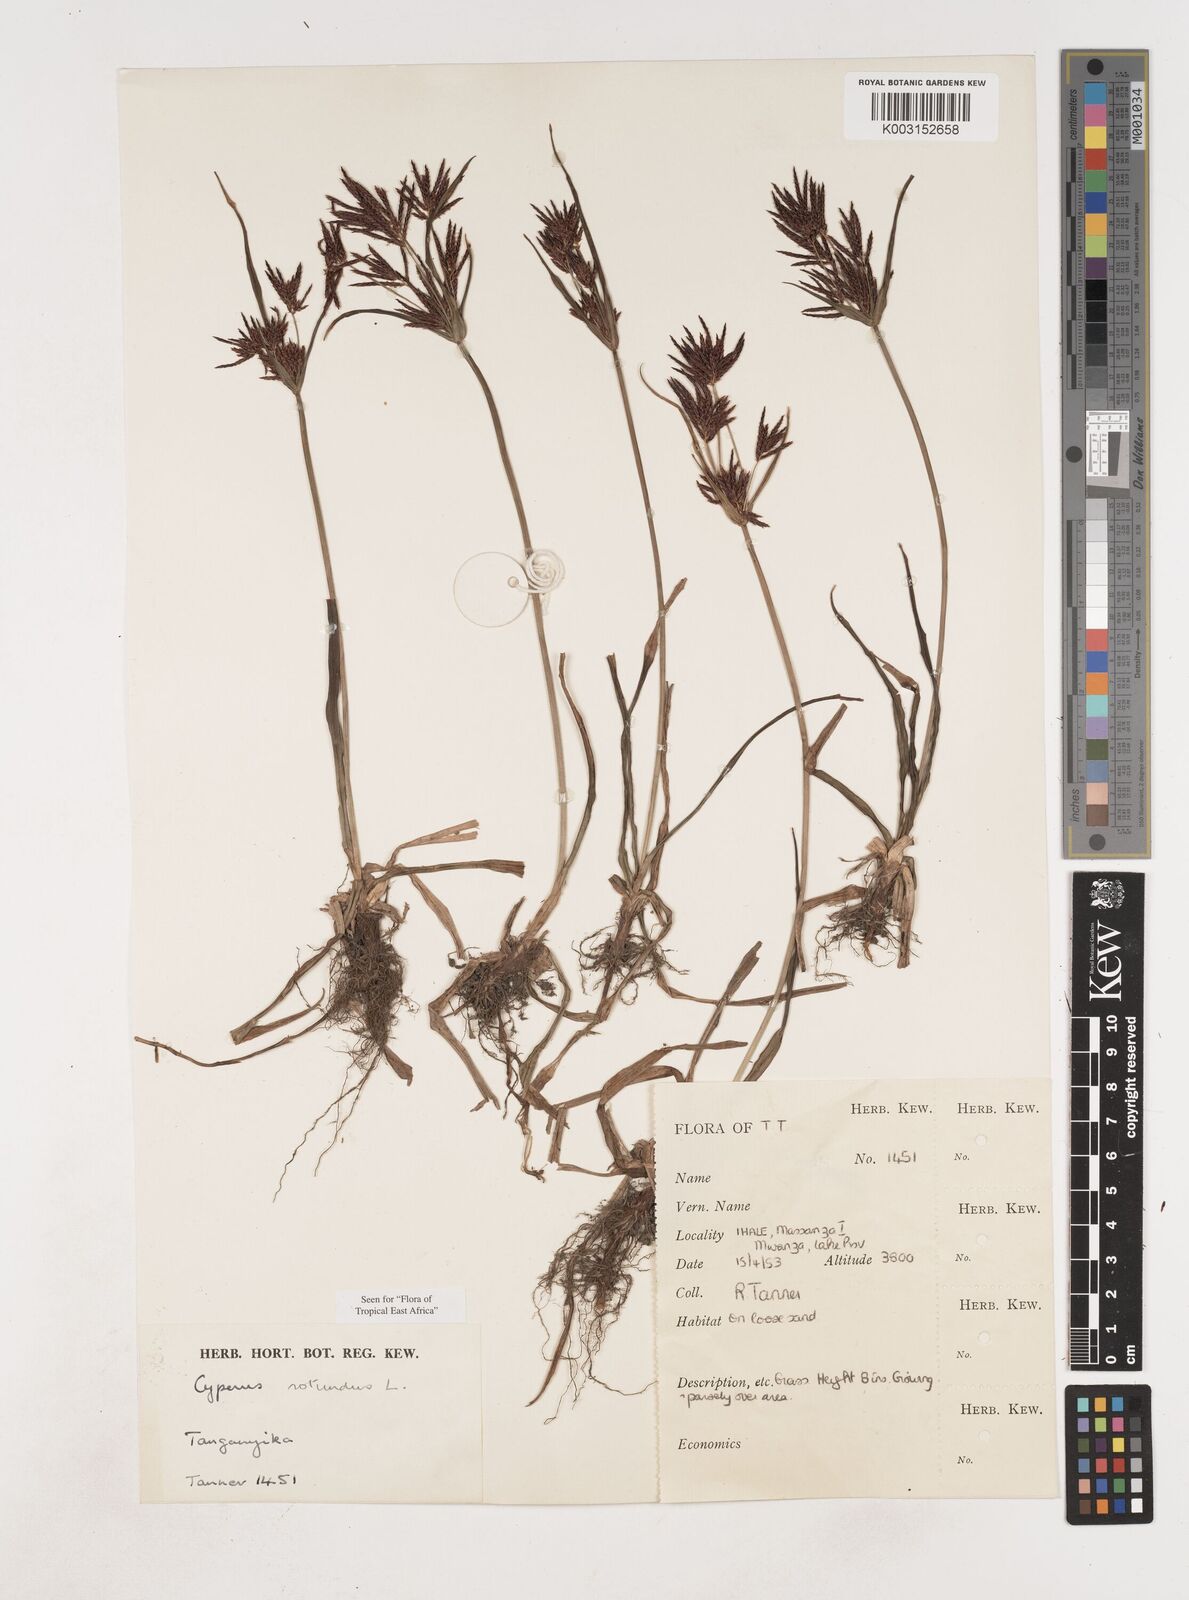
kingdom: Plantae
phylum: Tracheophyta
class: Liliopsida
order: Poales
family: Cyperaceae
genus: Cyperus
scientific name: Cyperus rotundus
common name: Nutgrass
